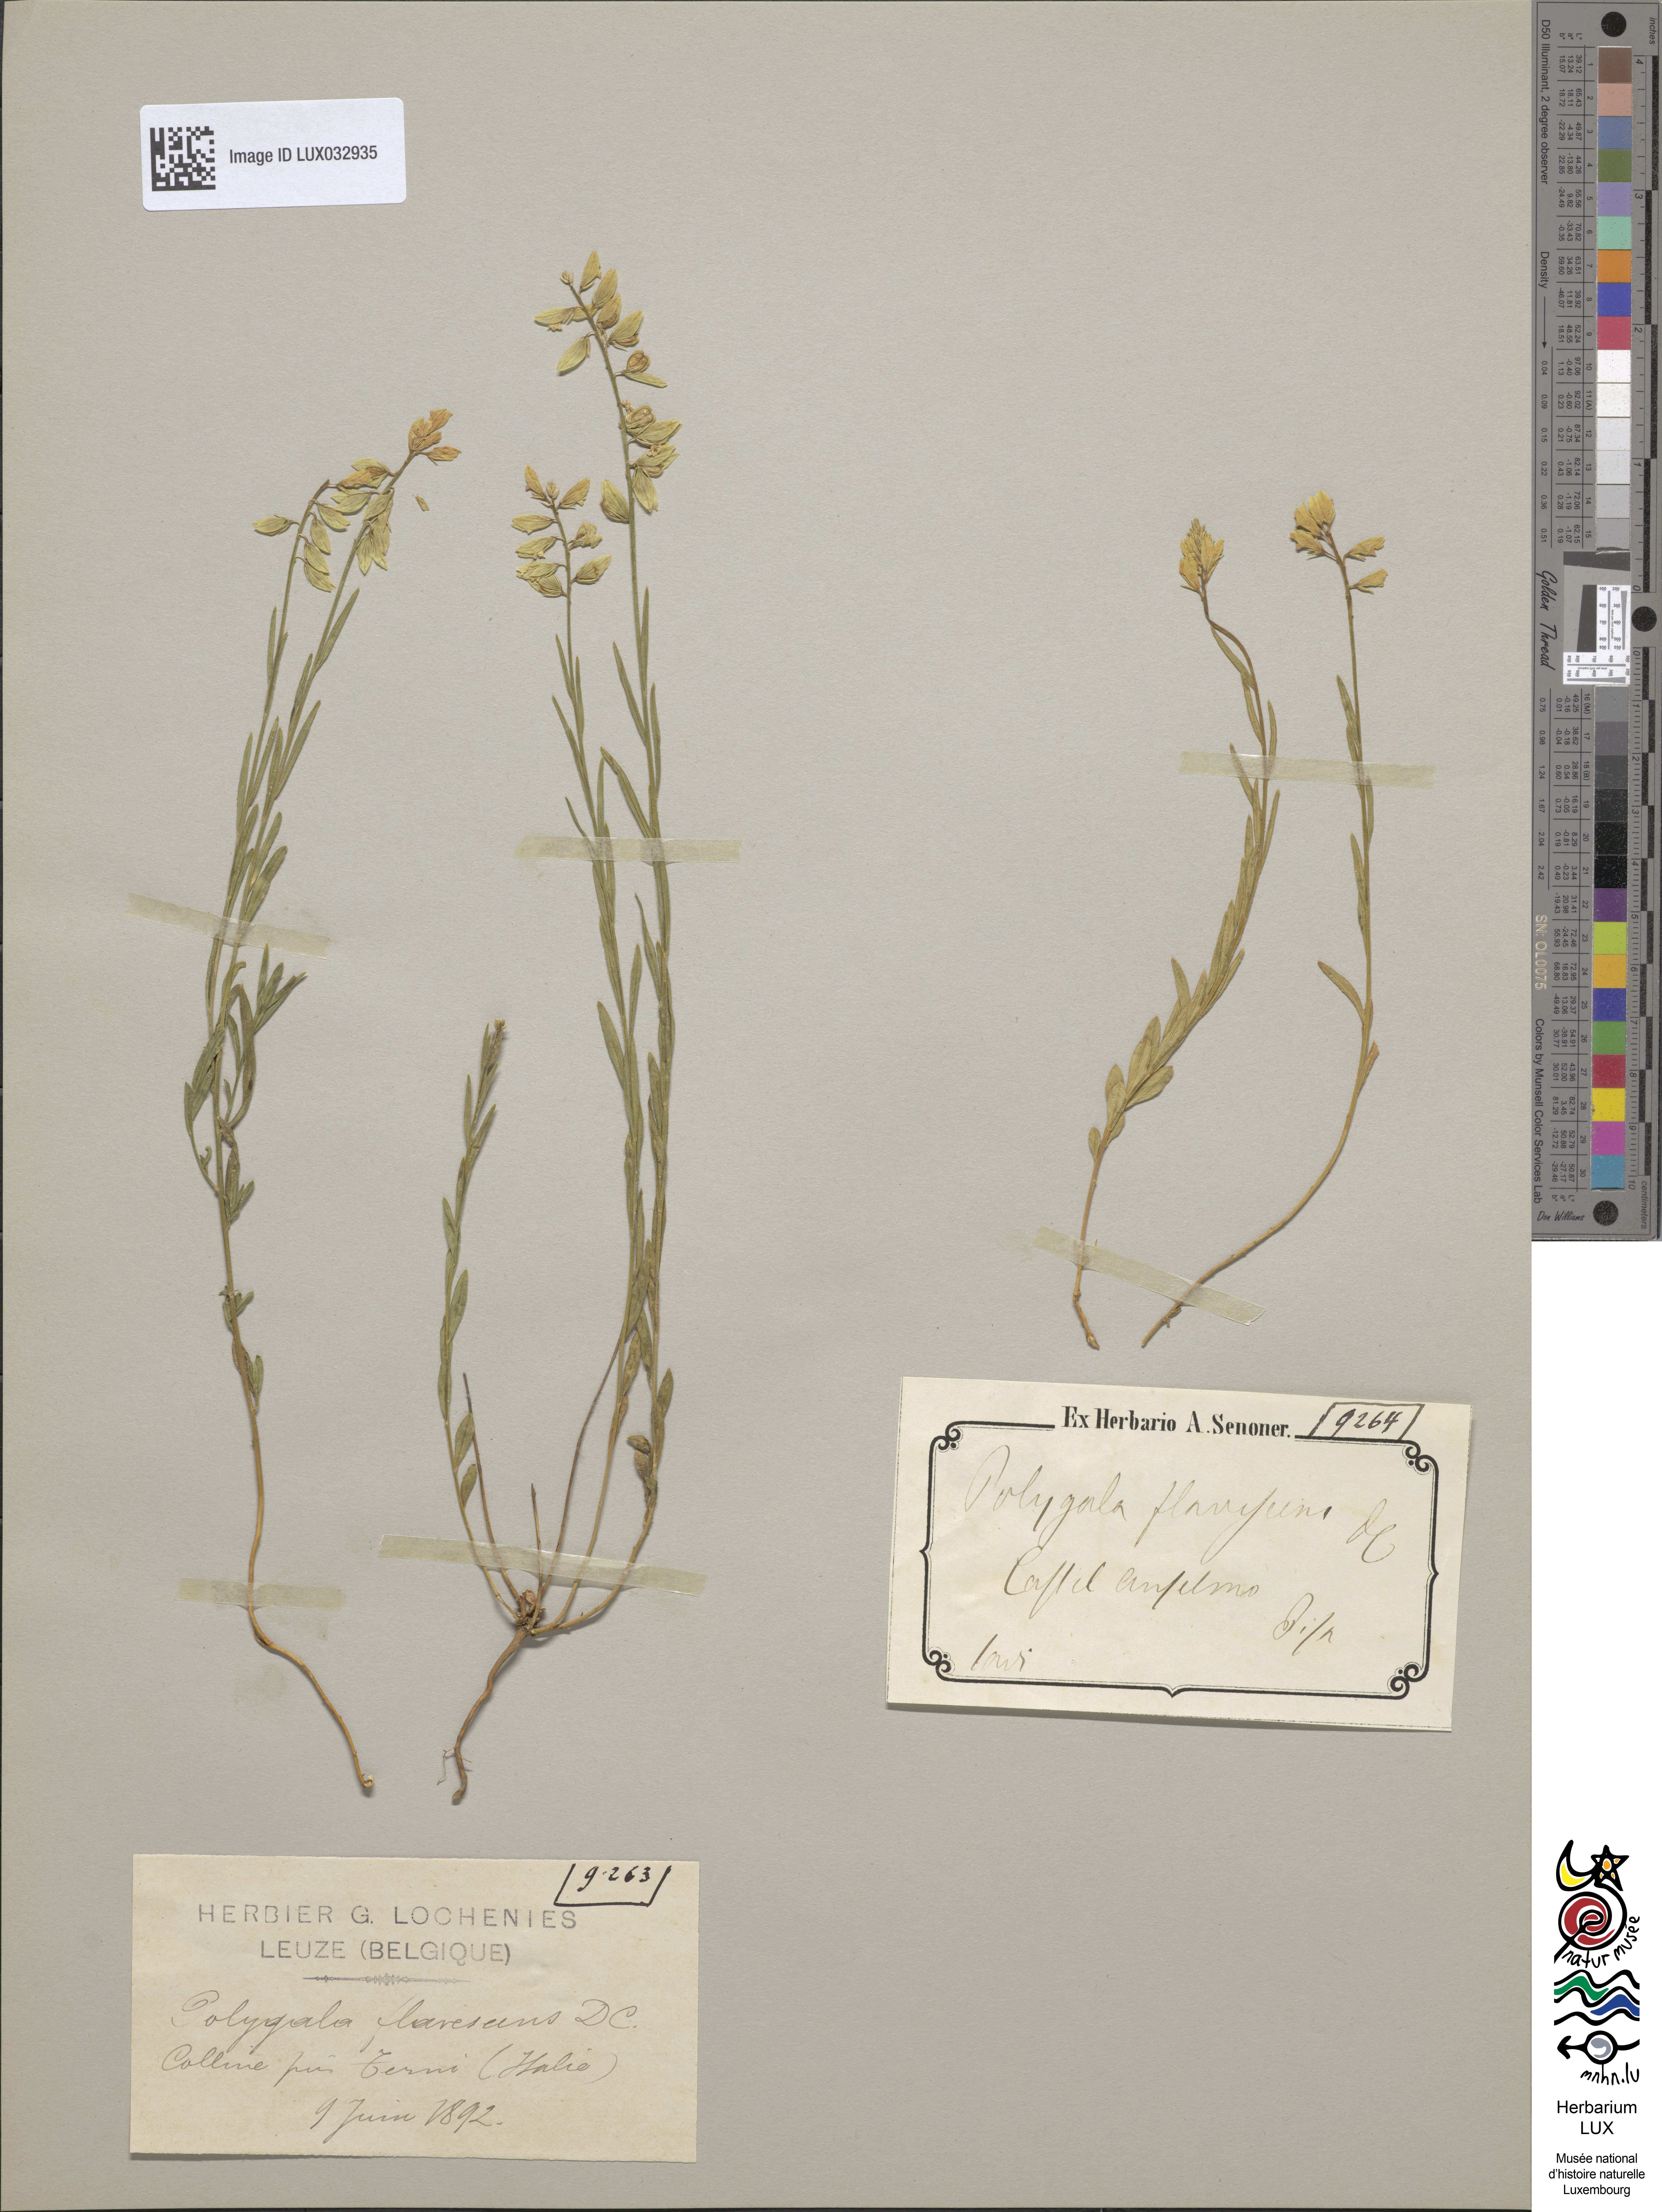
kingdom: Plantae
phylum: Tracheophyta
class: Magnoliopsida
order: Fabales
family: Polygalaceae
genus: Polygala
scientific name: Polygala flavescens
